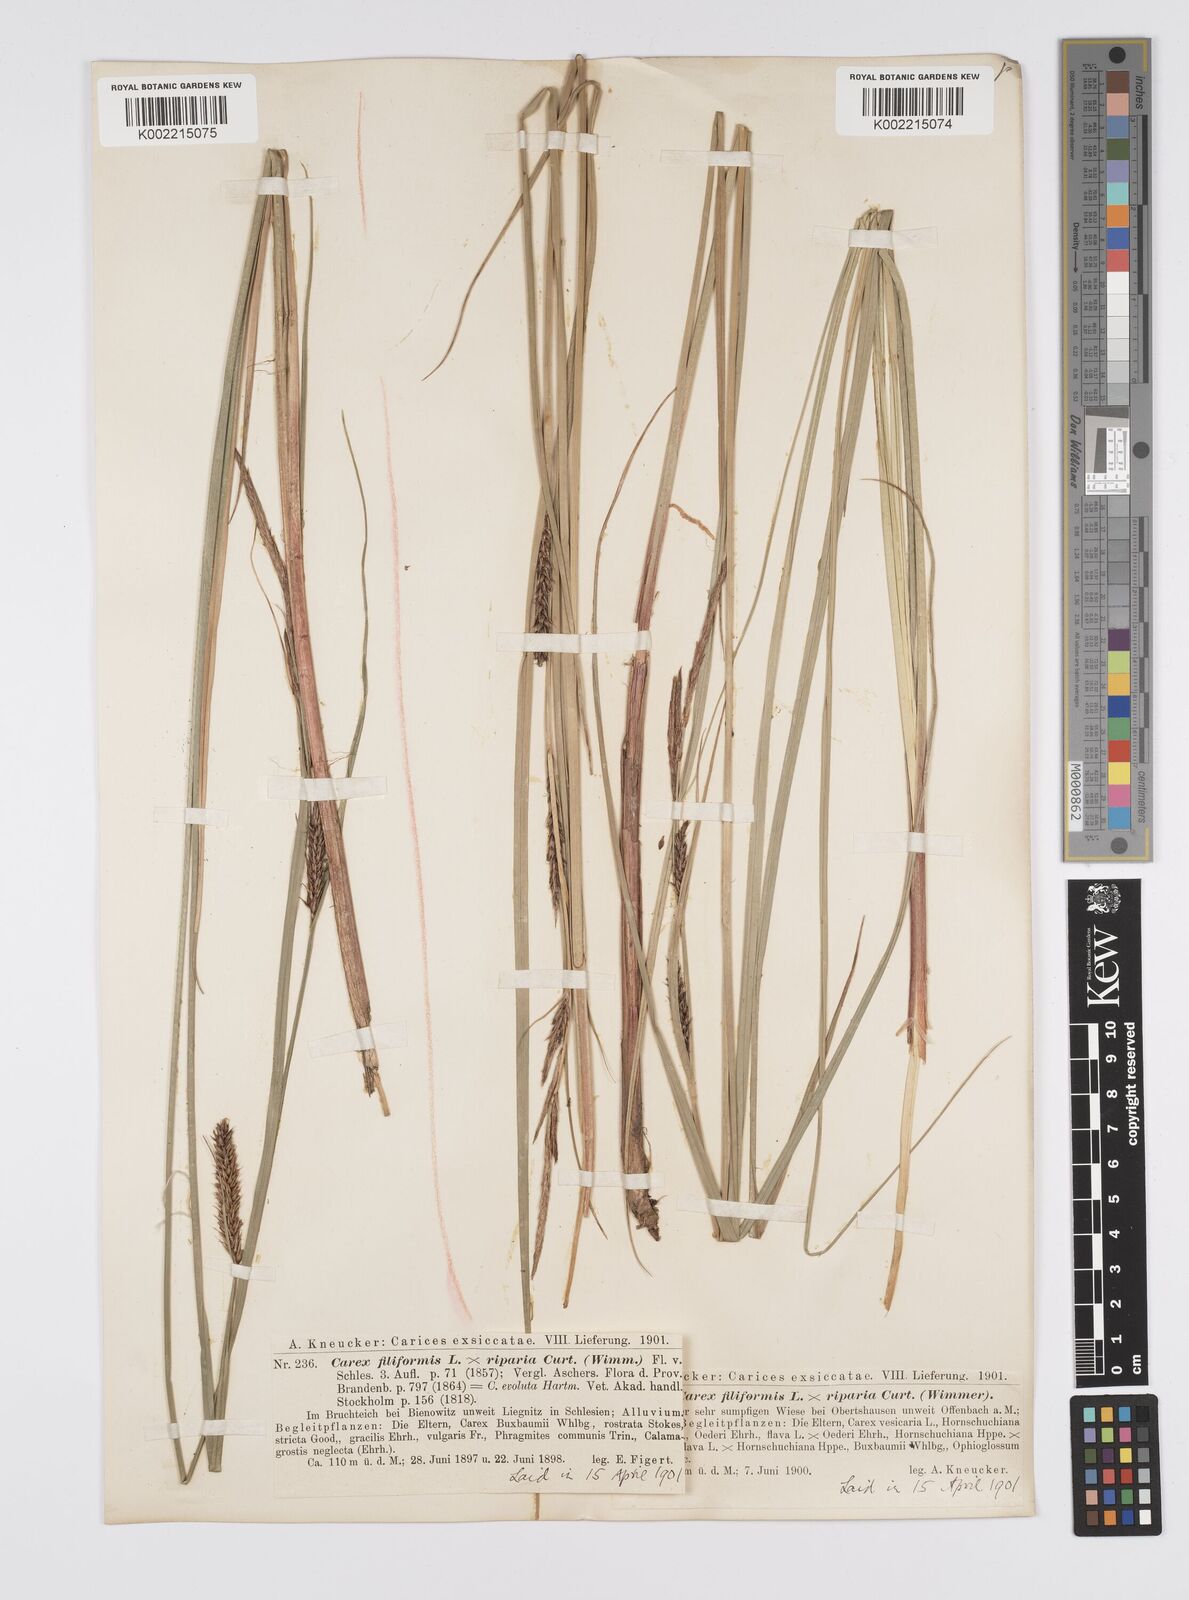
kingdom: Plantae
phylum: Tracheophyta
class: Liliopsida
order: Poales
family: Cyperaceae
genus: Carex
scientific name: Carex evoluta
